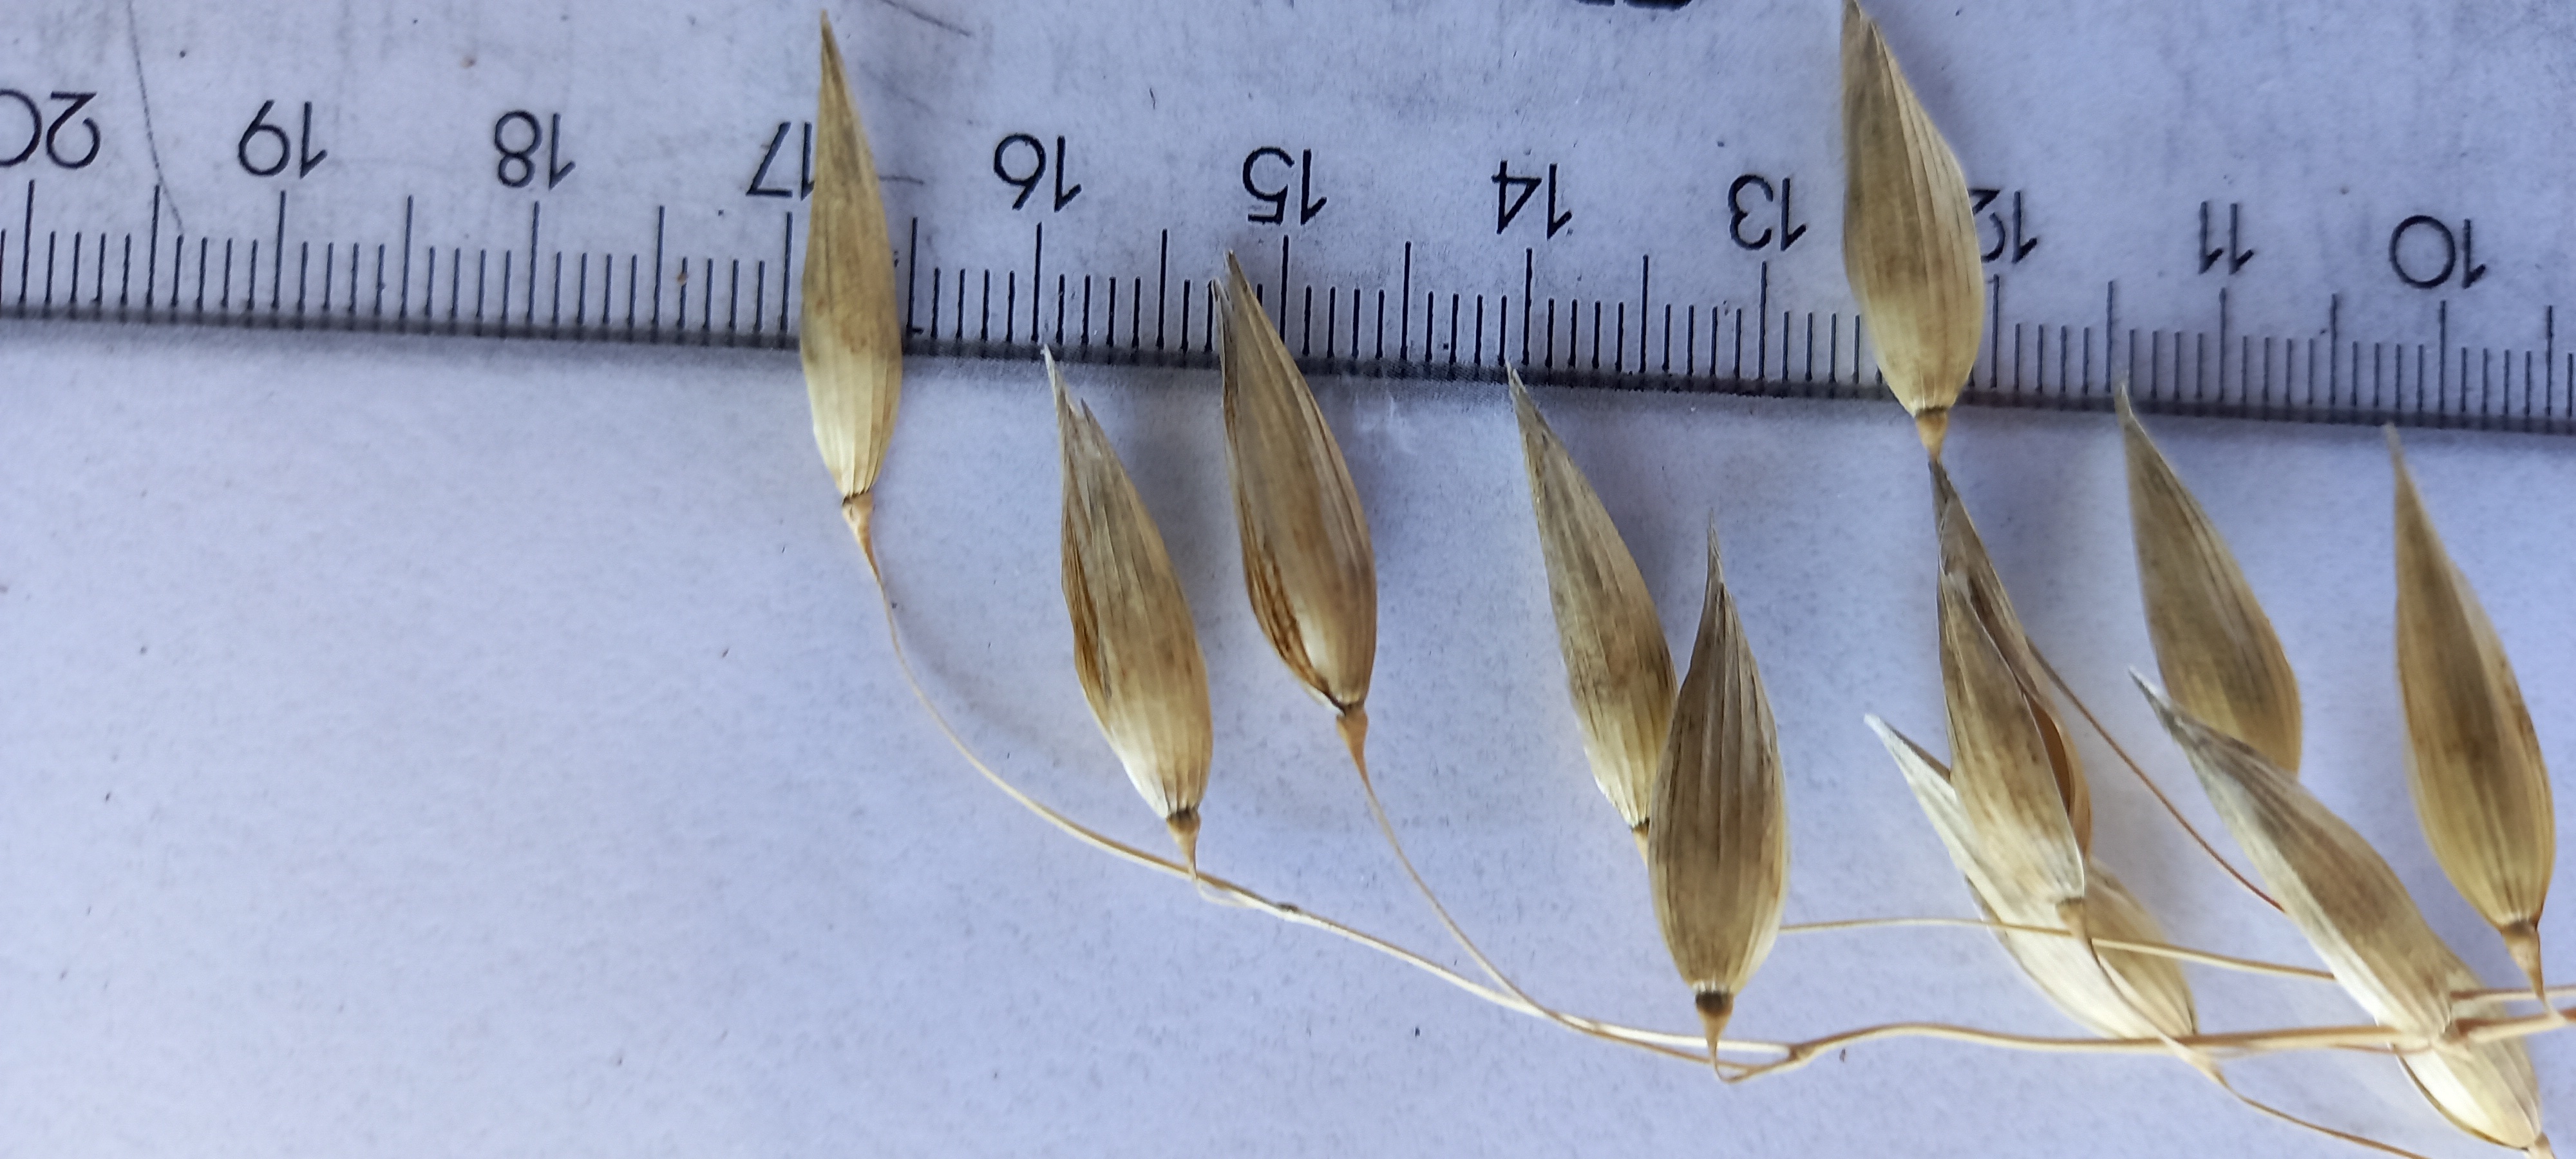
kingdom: Plantae
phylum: Tracheophyta
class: Liliopsida
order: Poales
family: Poaceae
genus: Avena
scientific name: Avena sativa
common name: Oat
